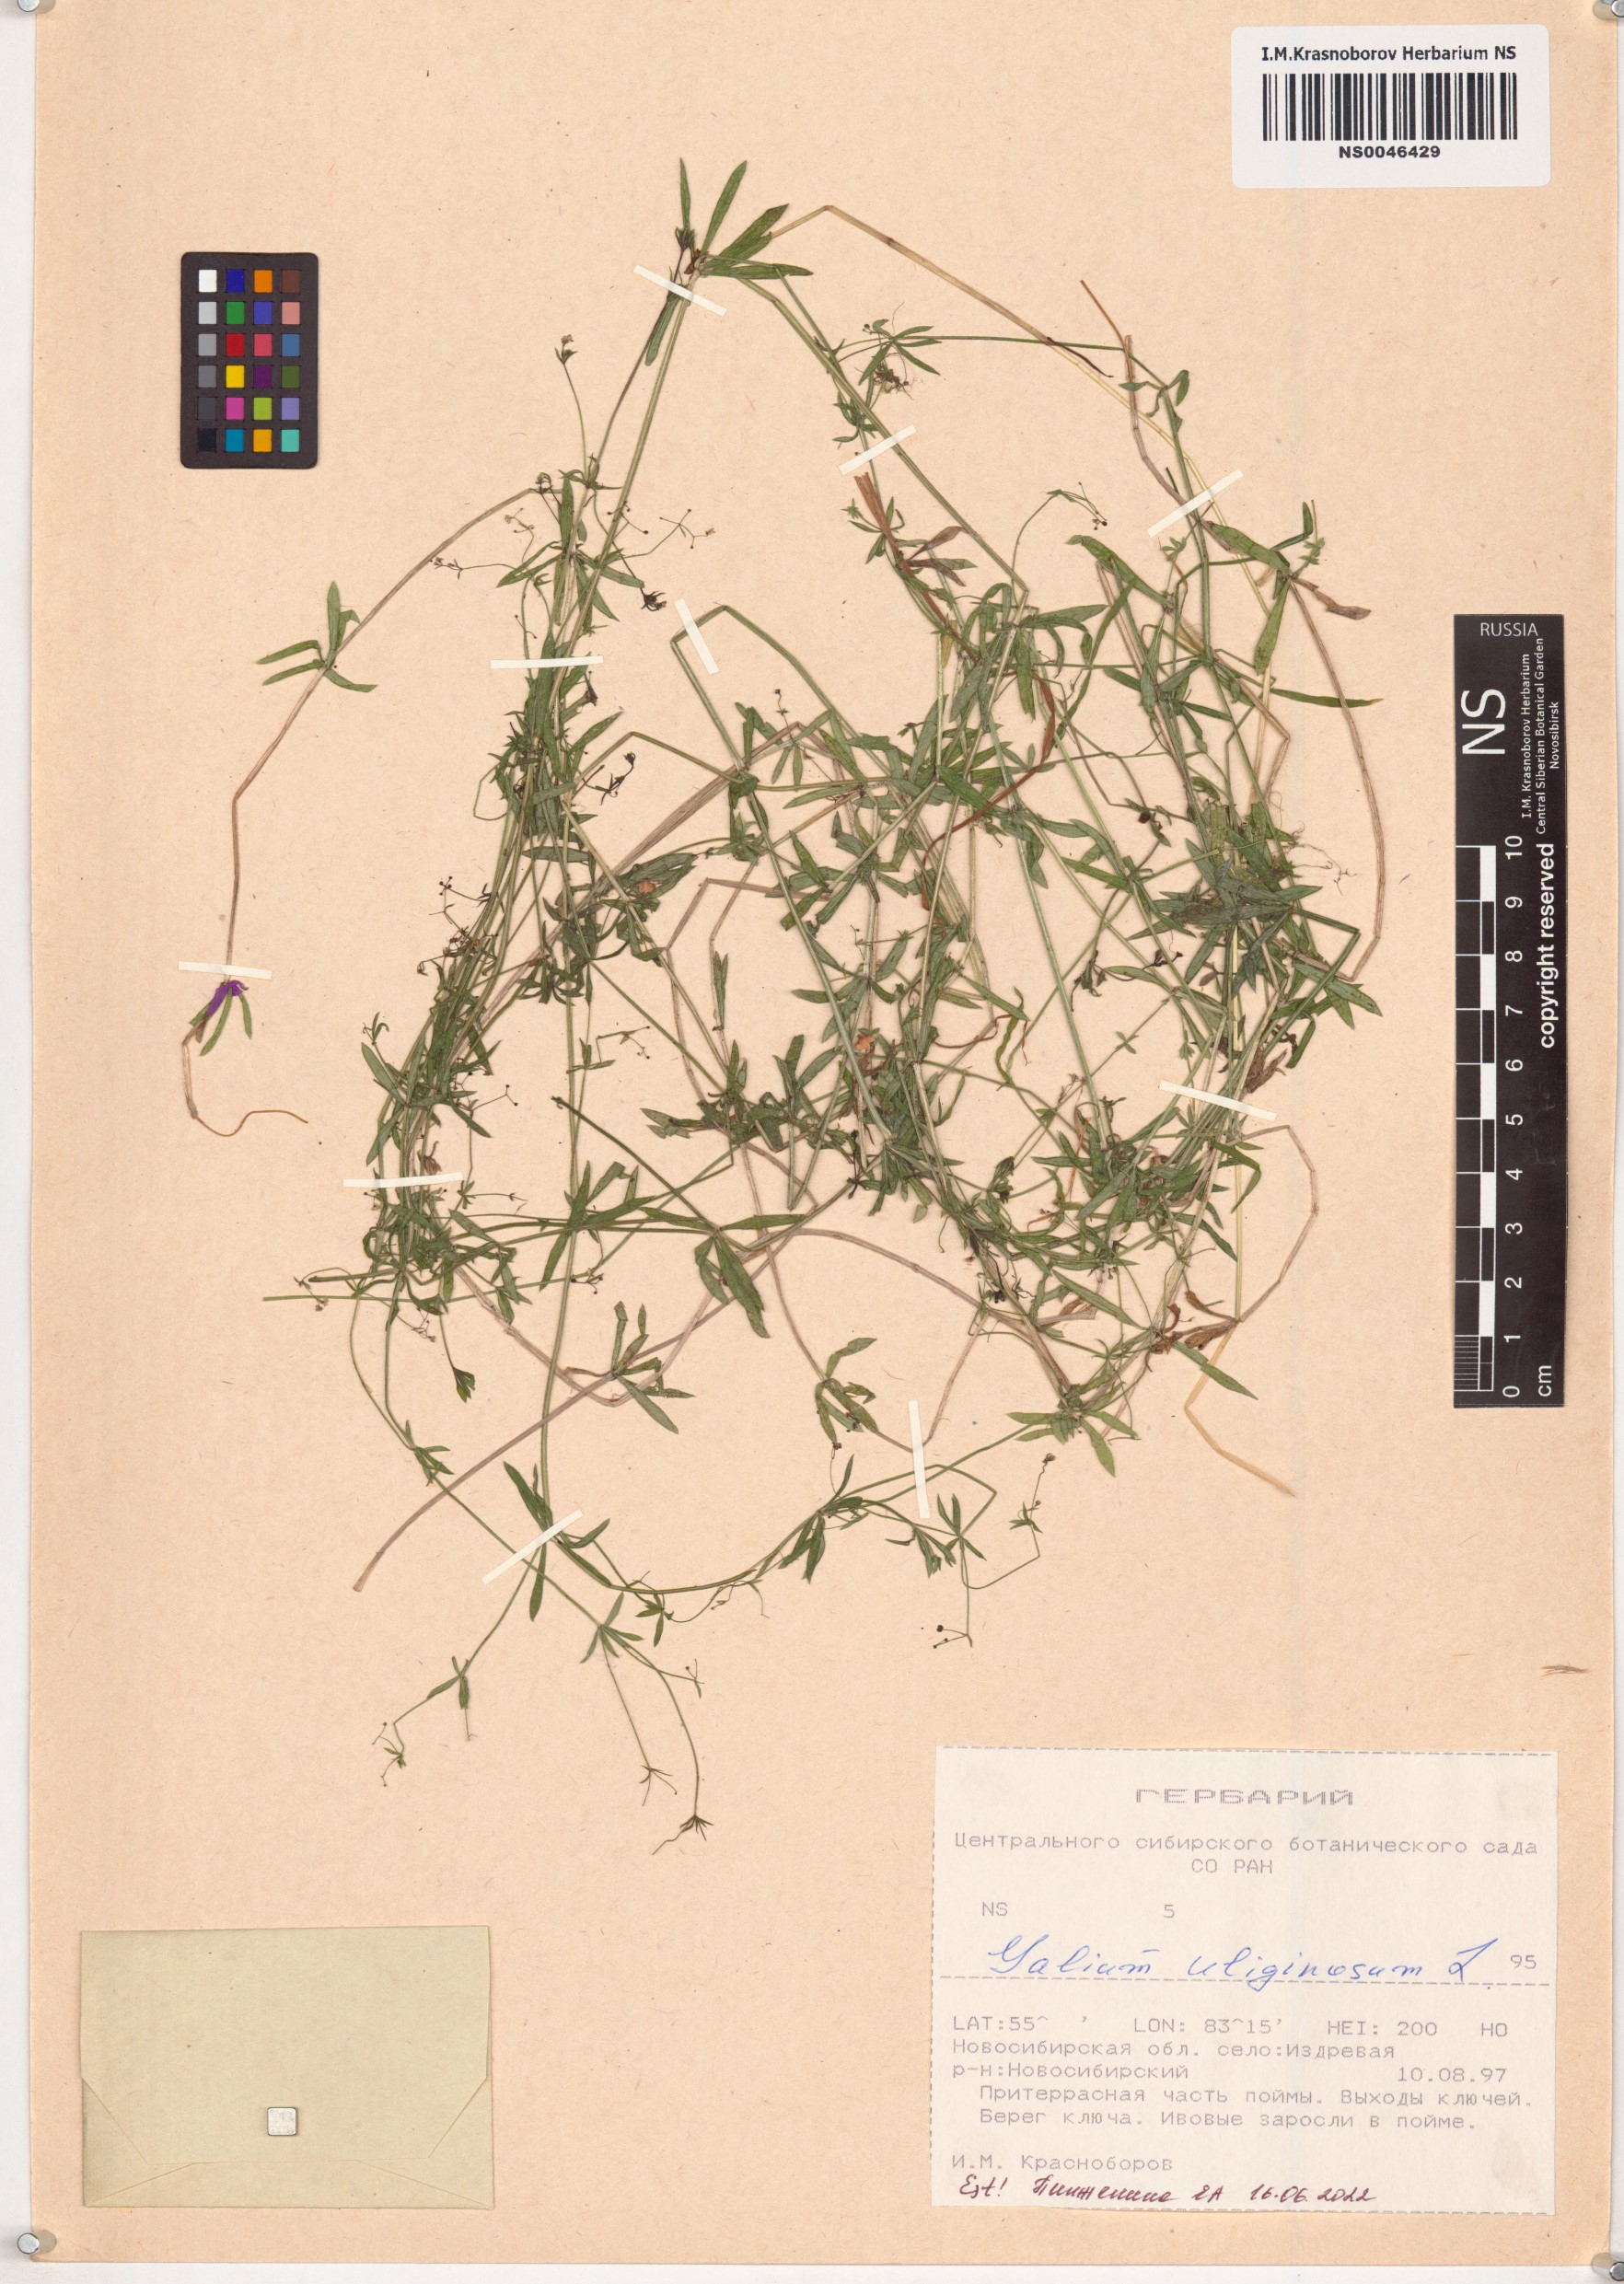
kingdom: Plantae
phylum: Tracheophyta
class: Magnoliopsida
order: Gentianales
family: Rubiaceae
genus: Galium
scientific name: Galium uliginosum
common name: Fen bedstraw
